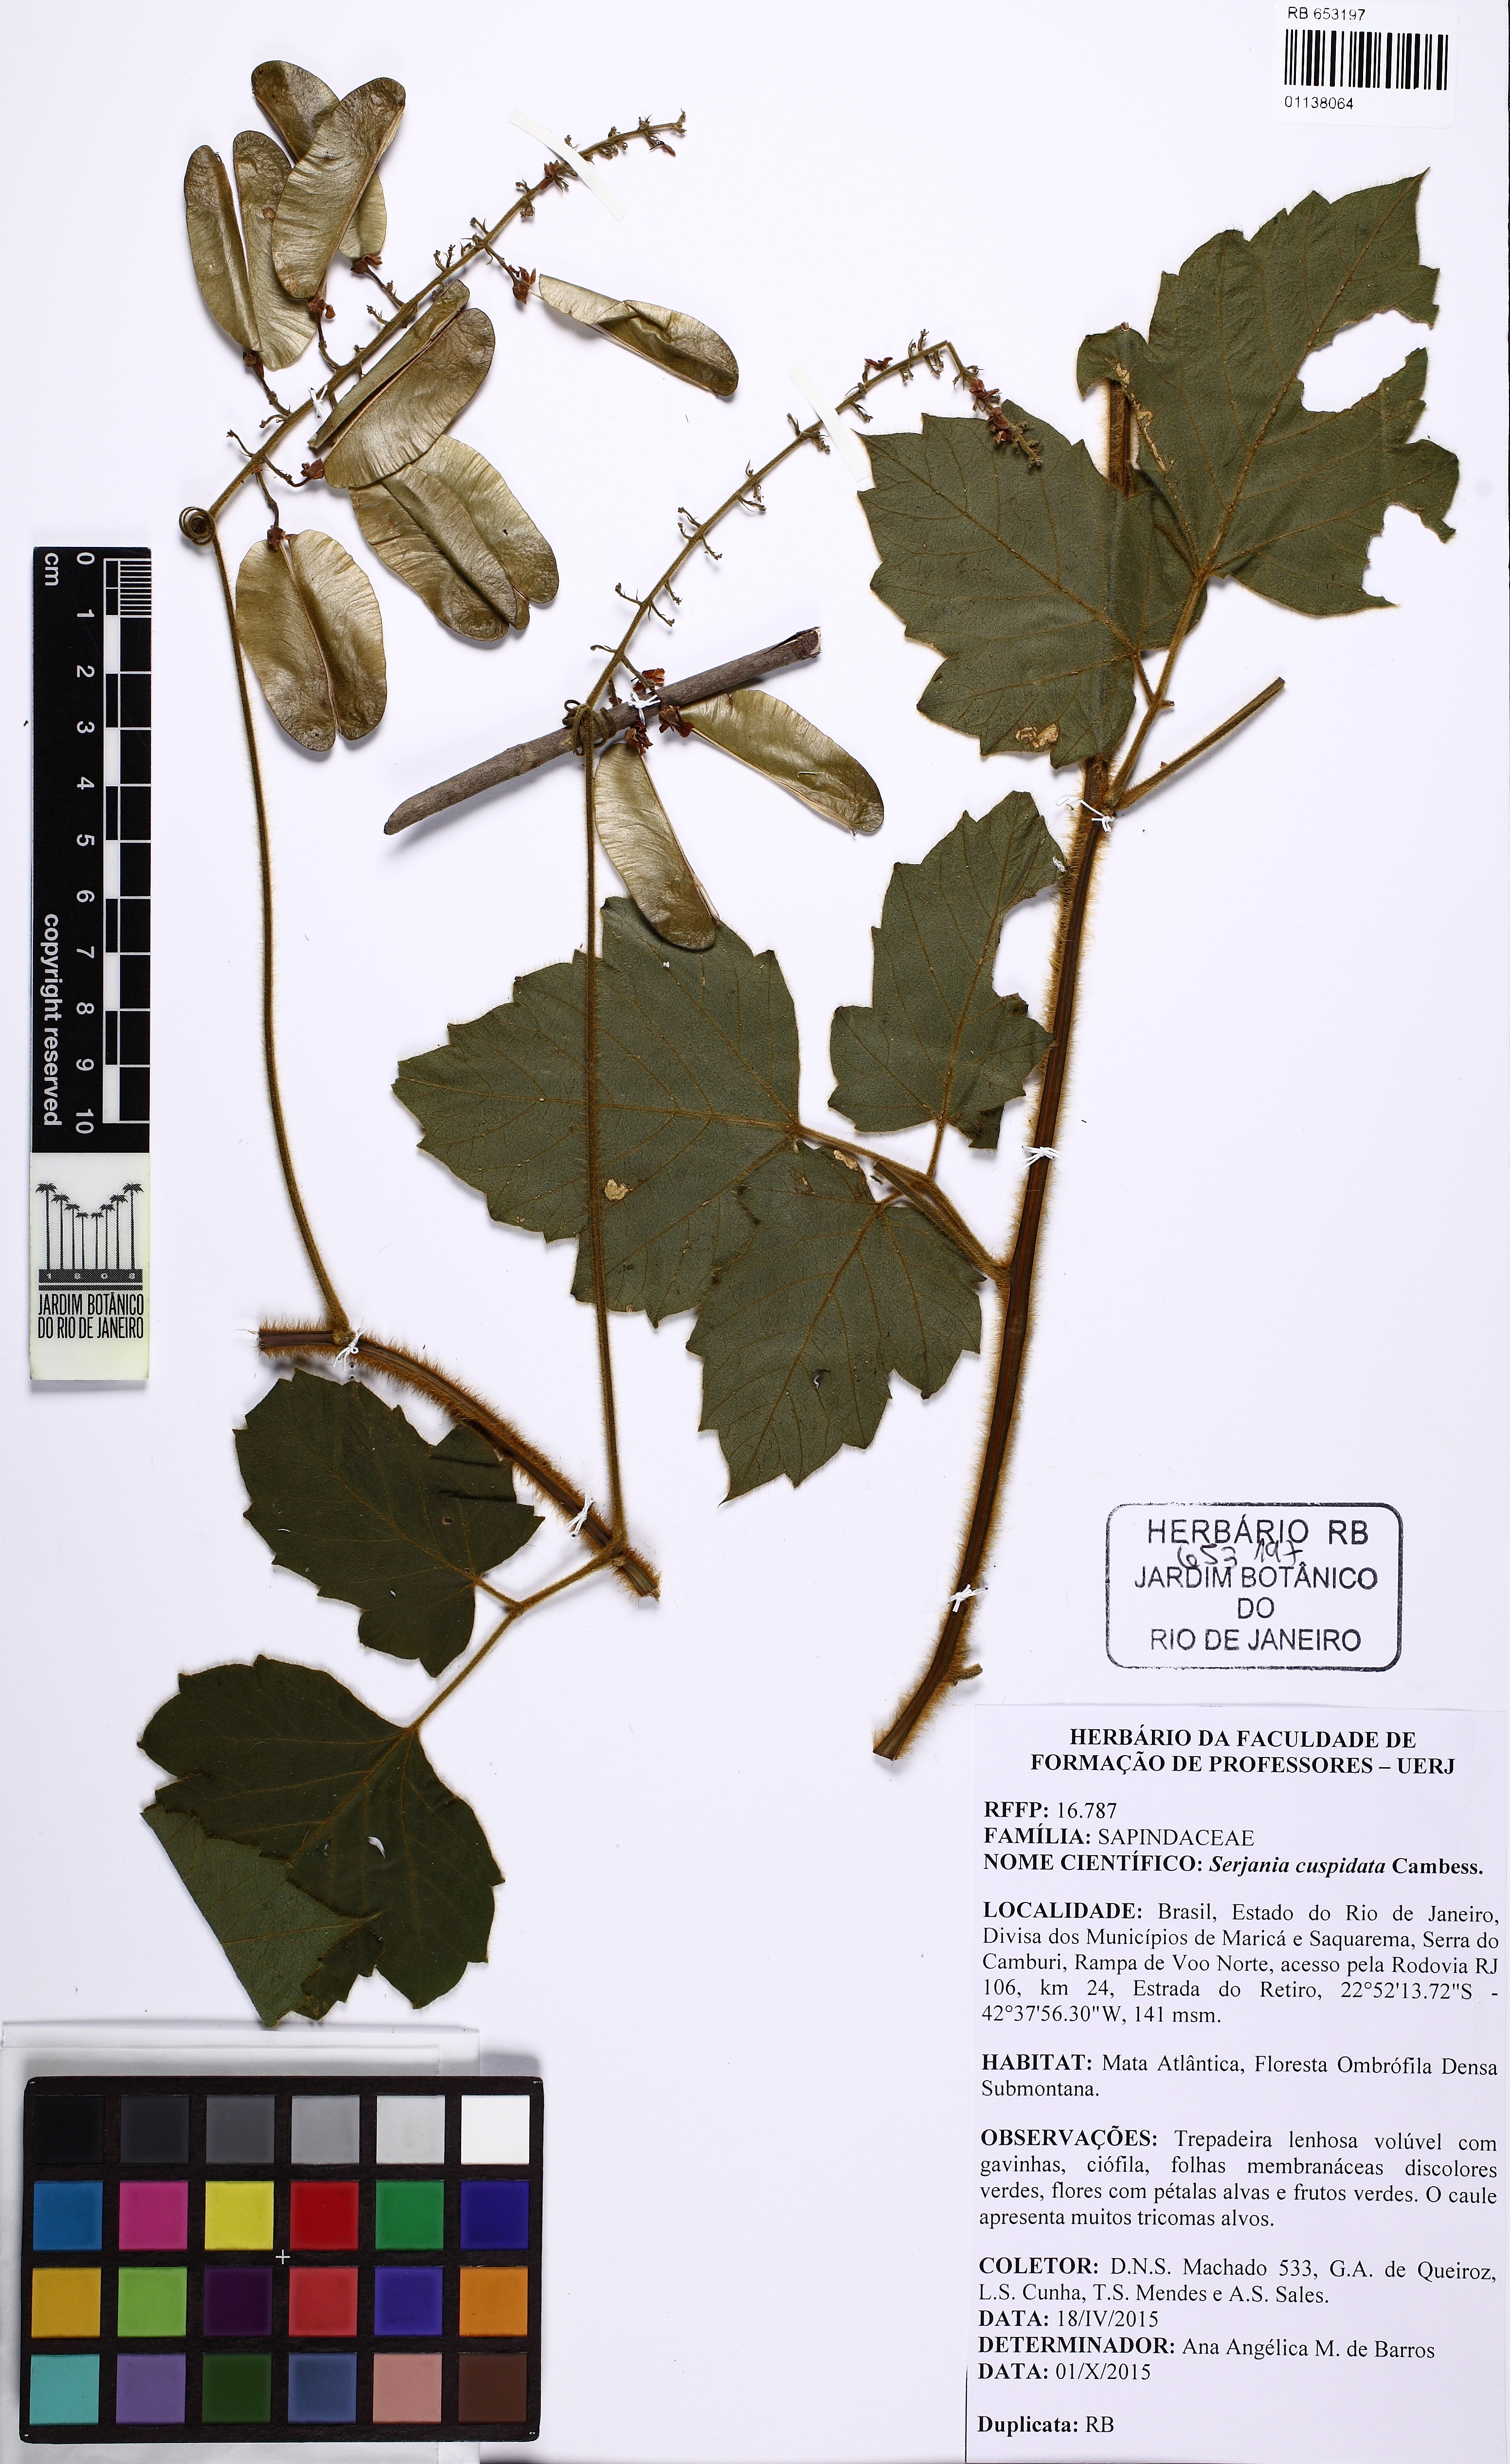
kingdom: Plantae
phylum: Tracheophyta
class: Magnoliopsida
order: Sapindales
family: Sapindaceae
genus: Serjania
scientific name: Serjania ferruginea
